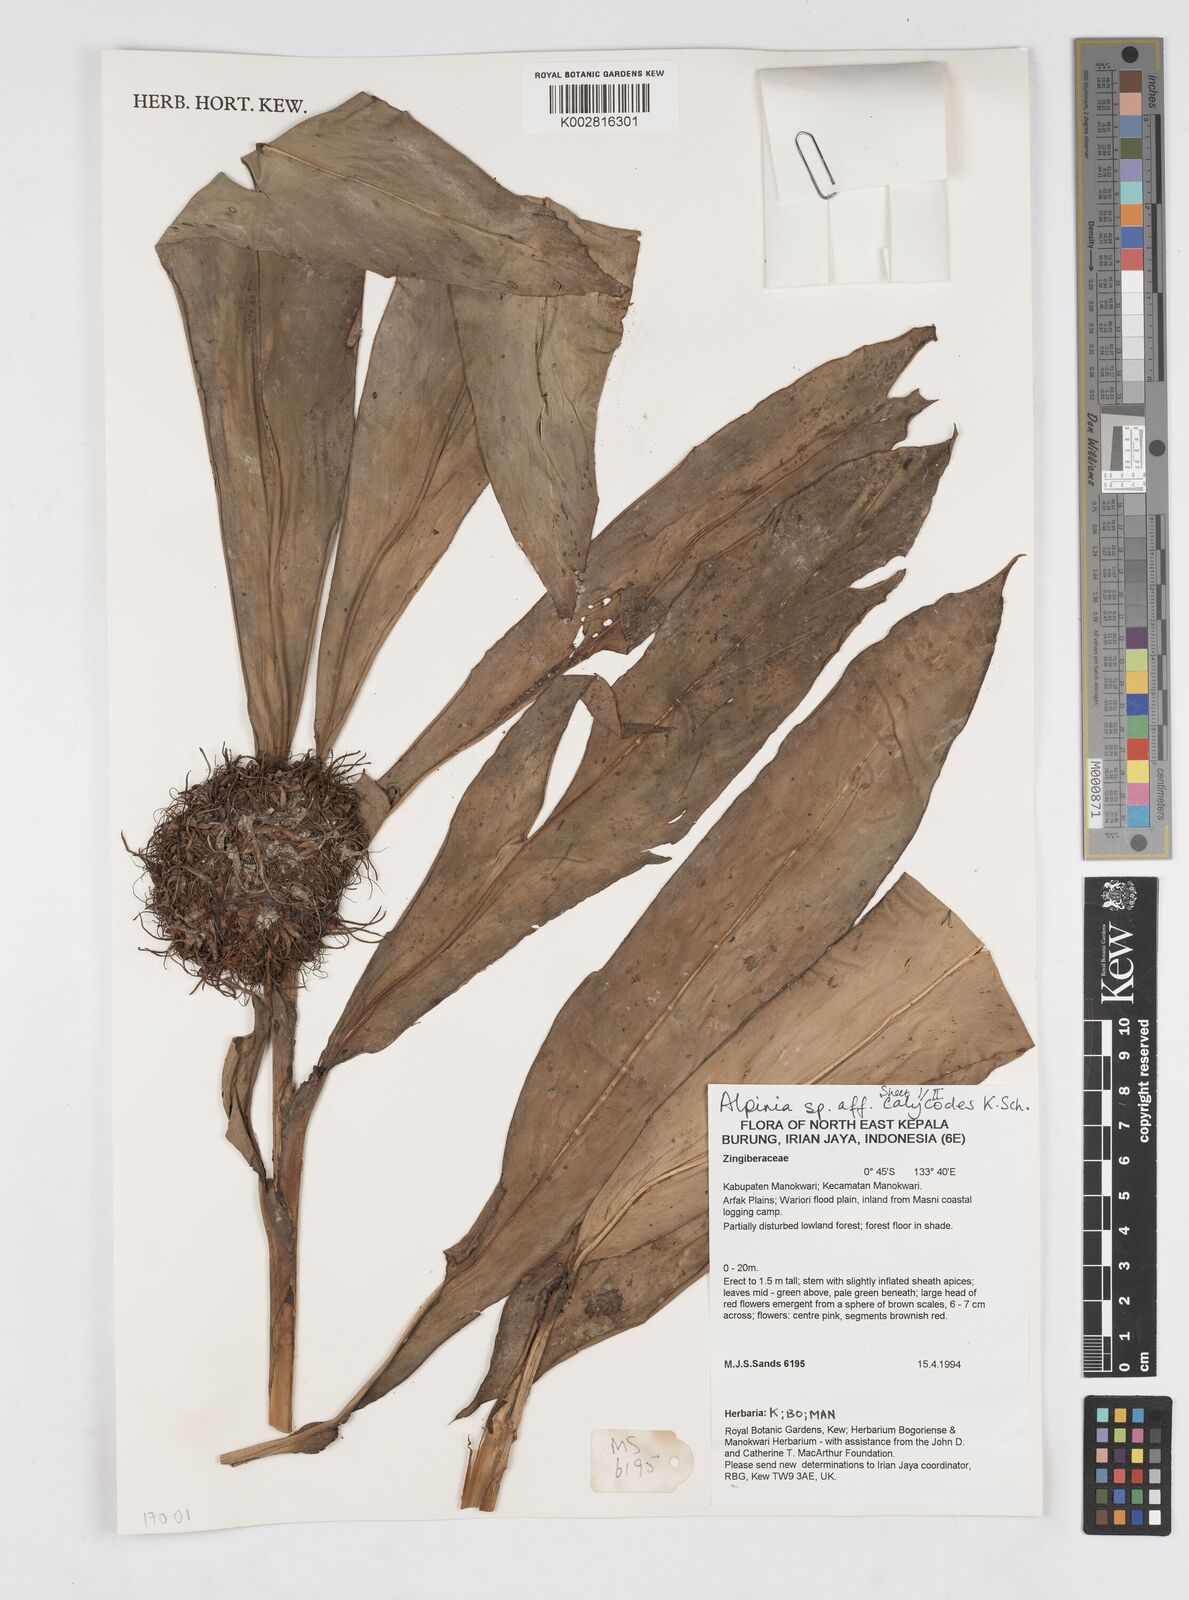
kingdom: Plantae
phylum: Tracheophyta
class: Liliopsida
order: Zingiberales
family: Zingiberaceae
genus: Alpinia
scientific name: Alpinia calycodes
